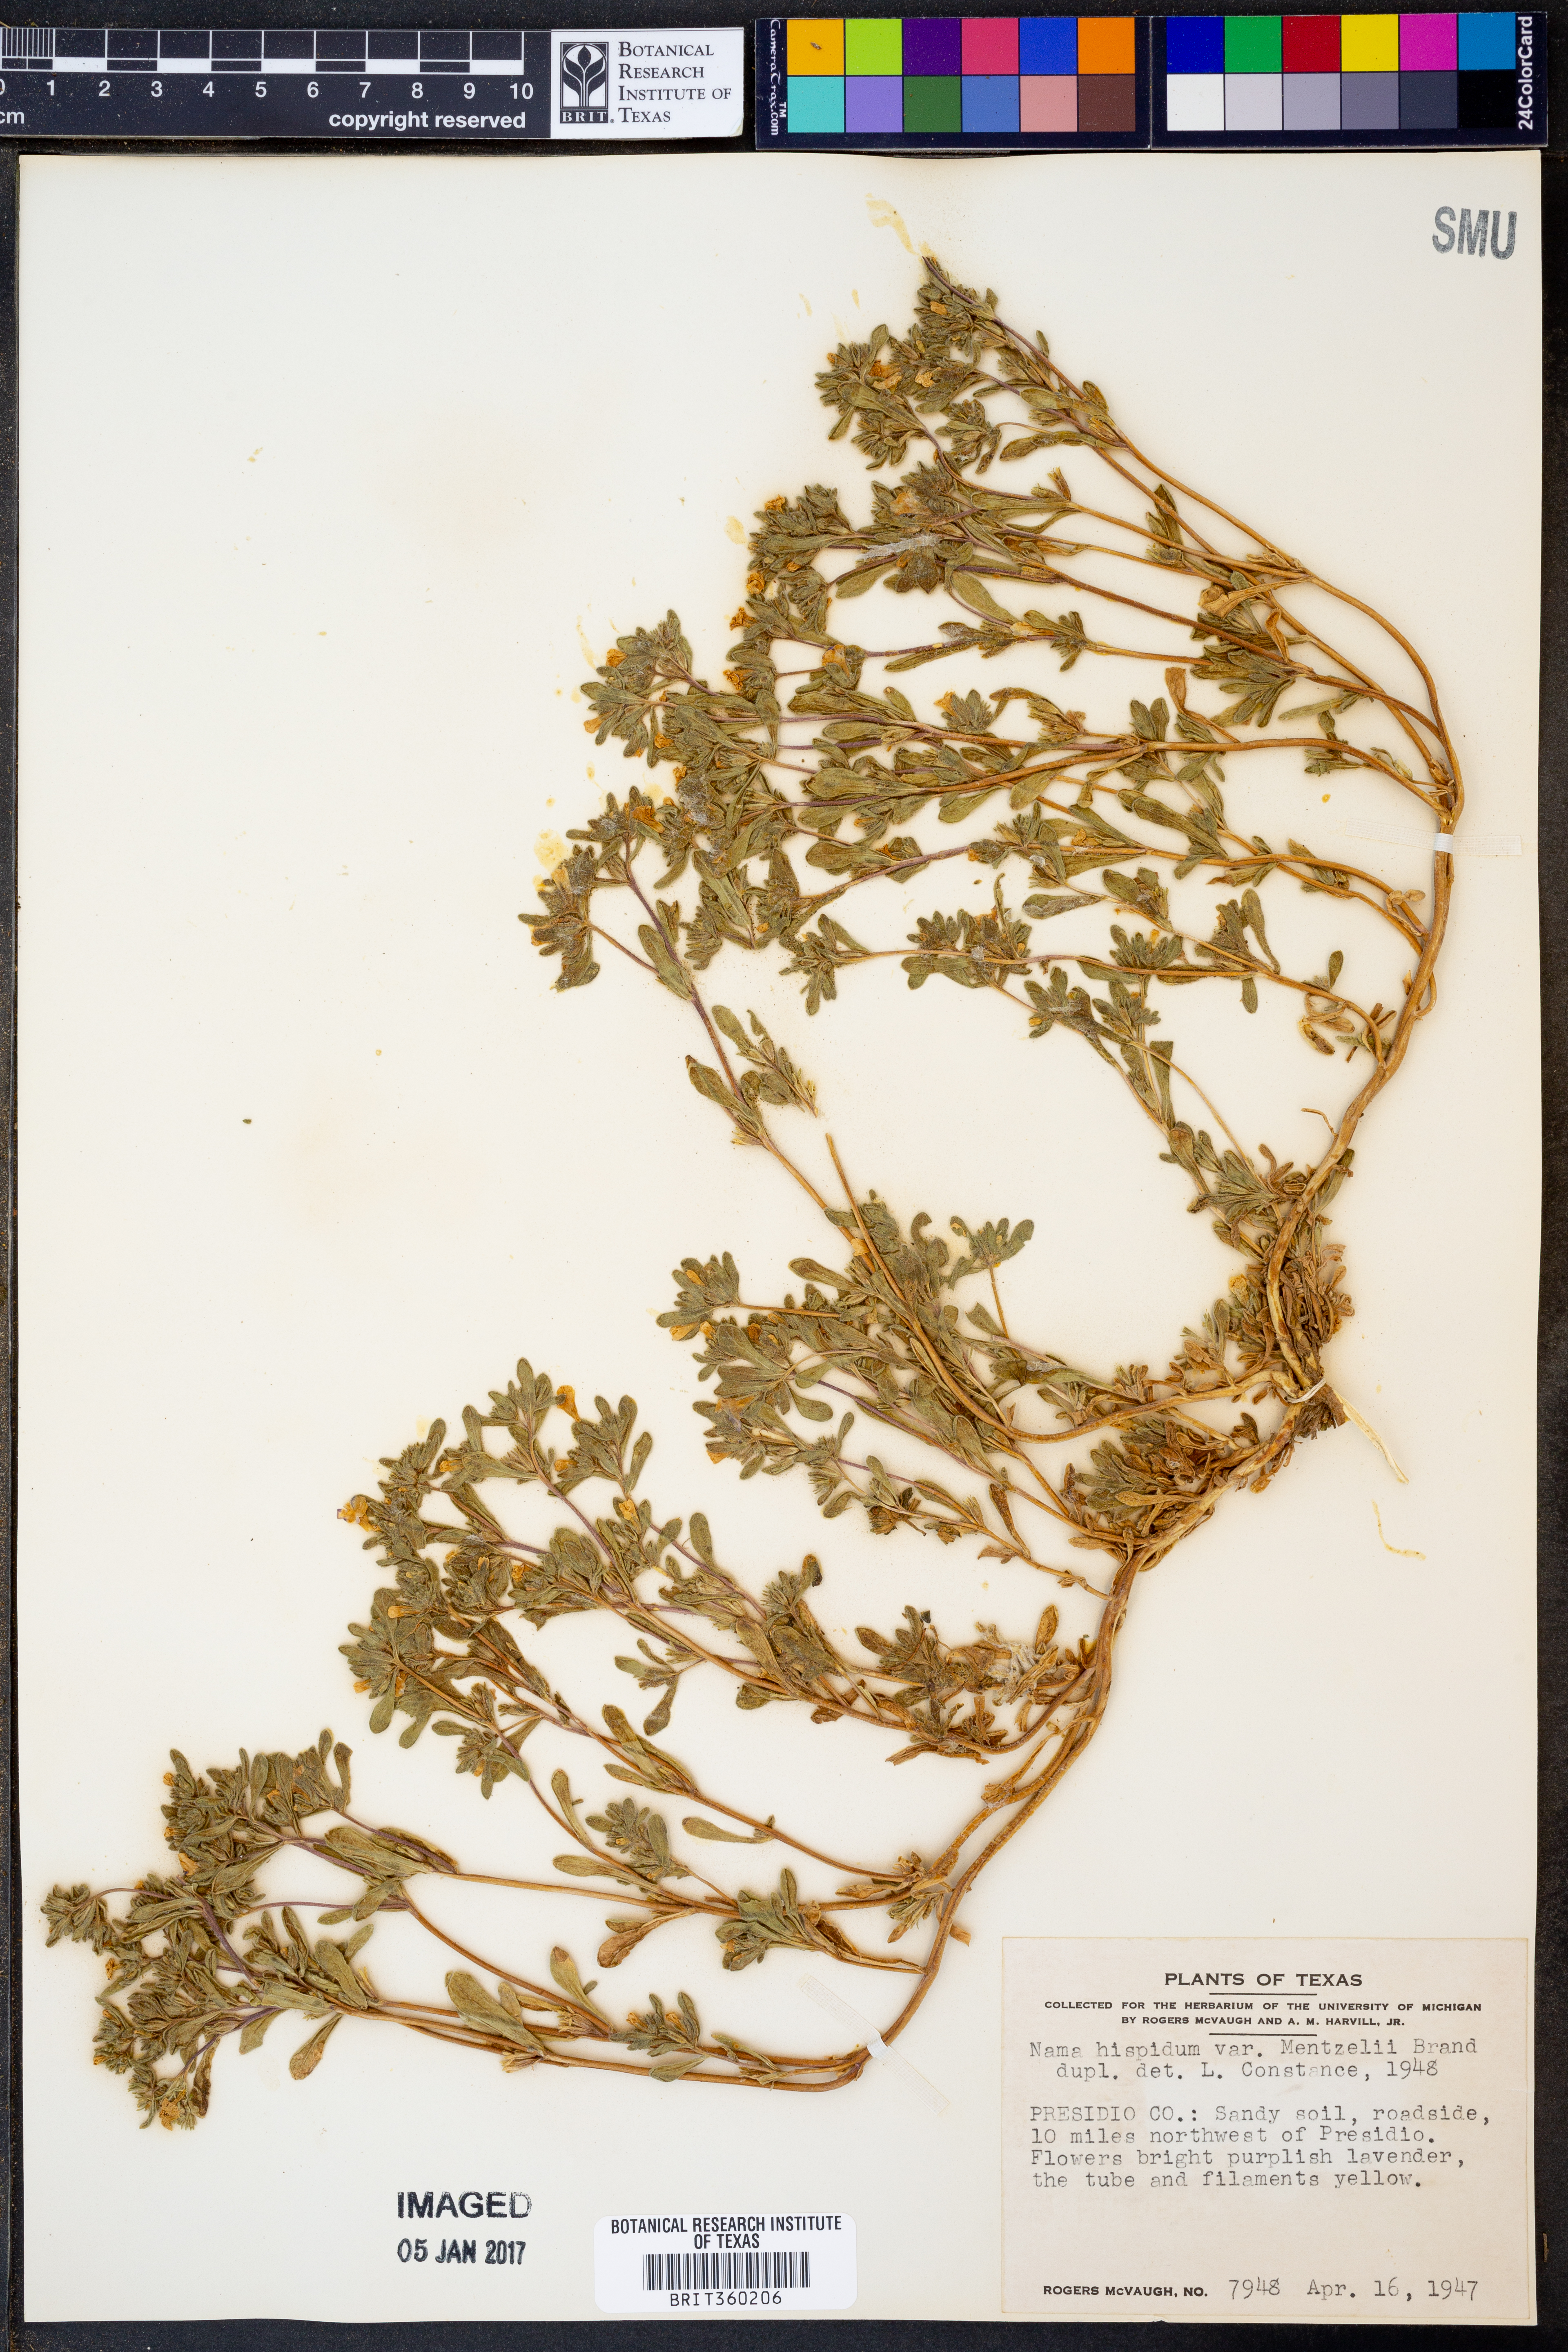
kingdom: Plantae
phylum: Tracheophyta
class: Magnoliopsida
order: Boraginales
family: Namaceae
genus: Nama
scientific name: Nama hispida
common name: Bristly nama
